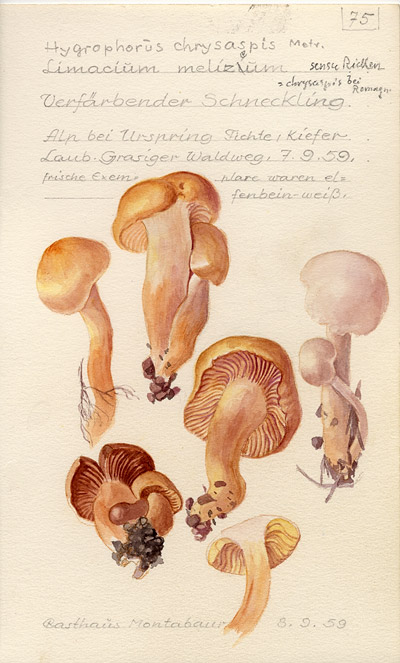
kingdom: Fungi
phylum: Basidiomycota
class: Agaricomycetes
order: Agaricales
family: Hygrophoraceae
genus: Hygrophorus
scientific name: Hygrophorus cossus
